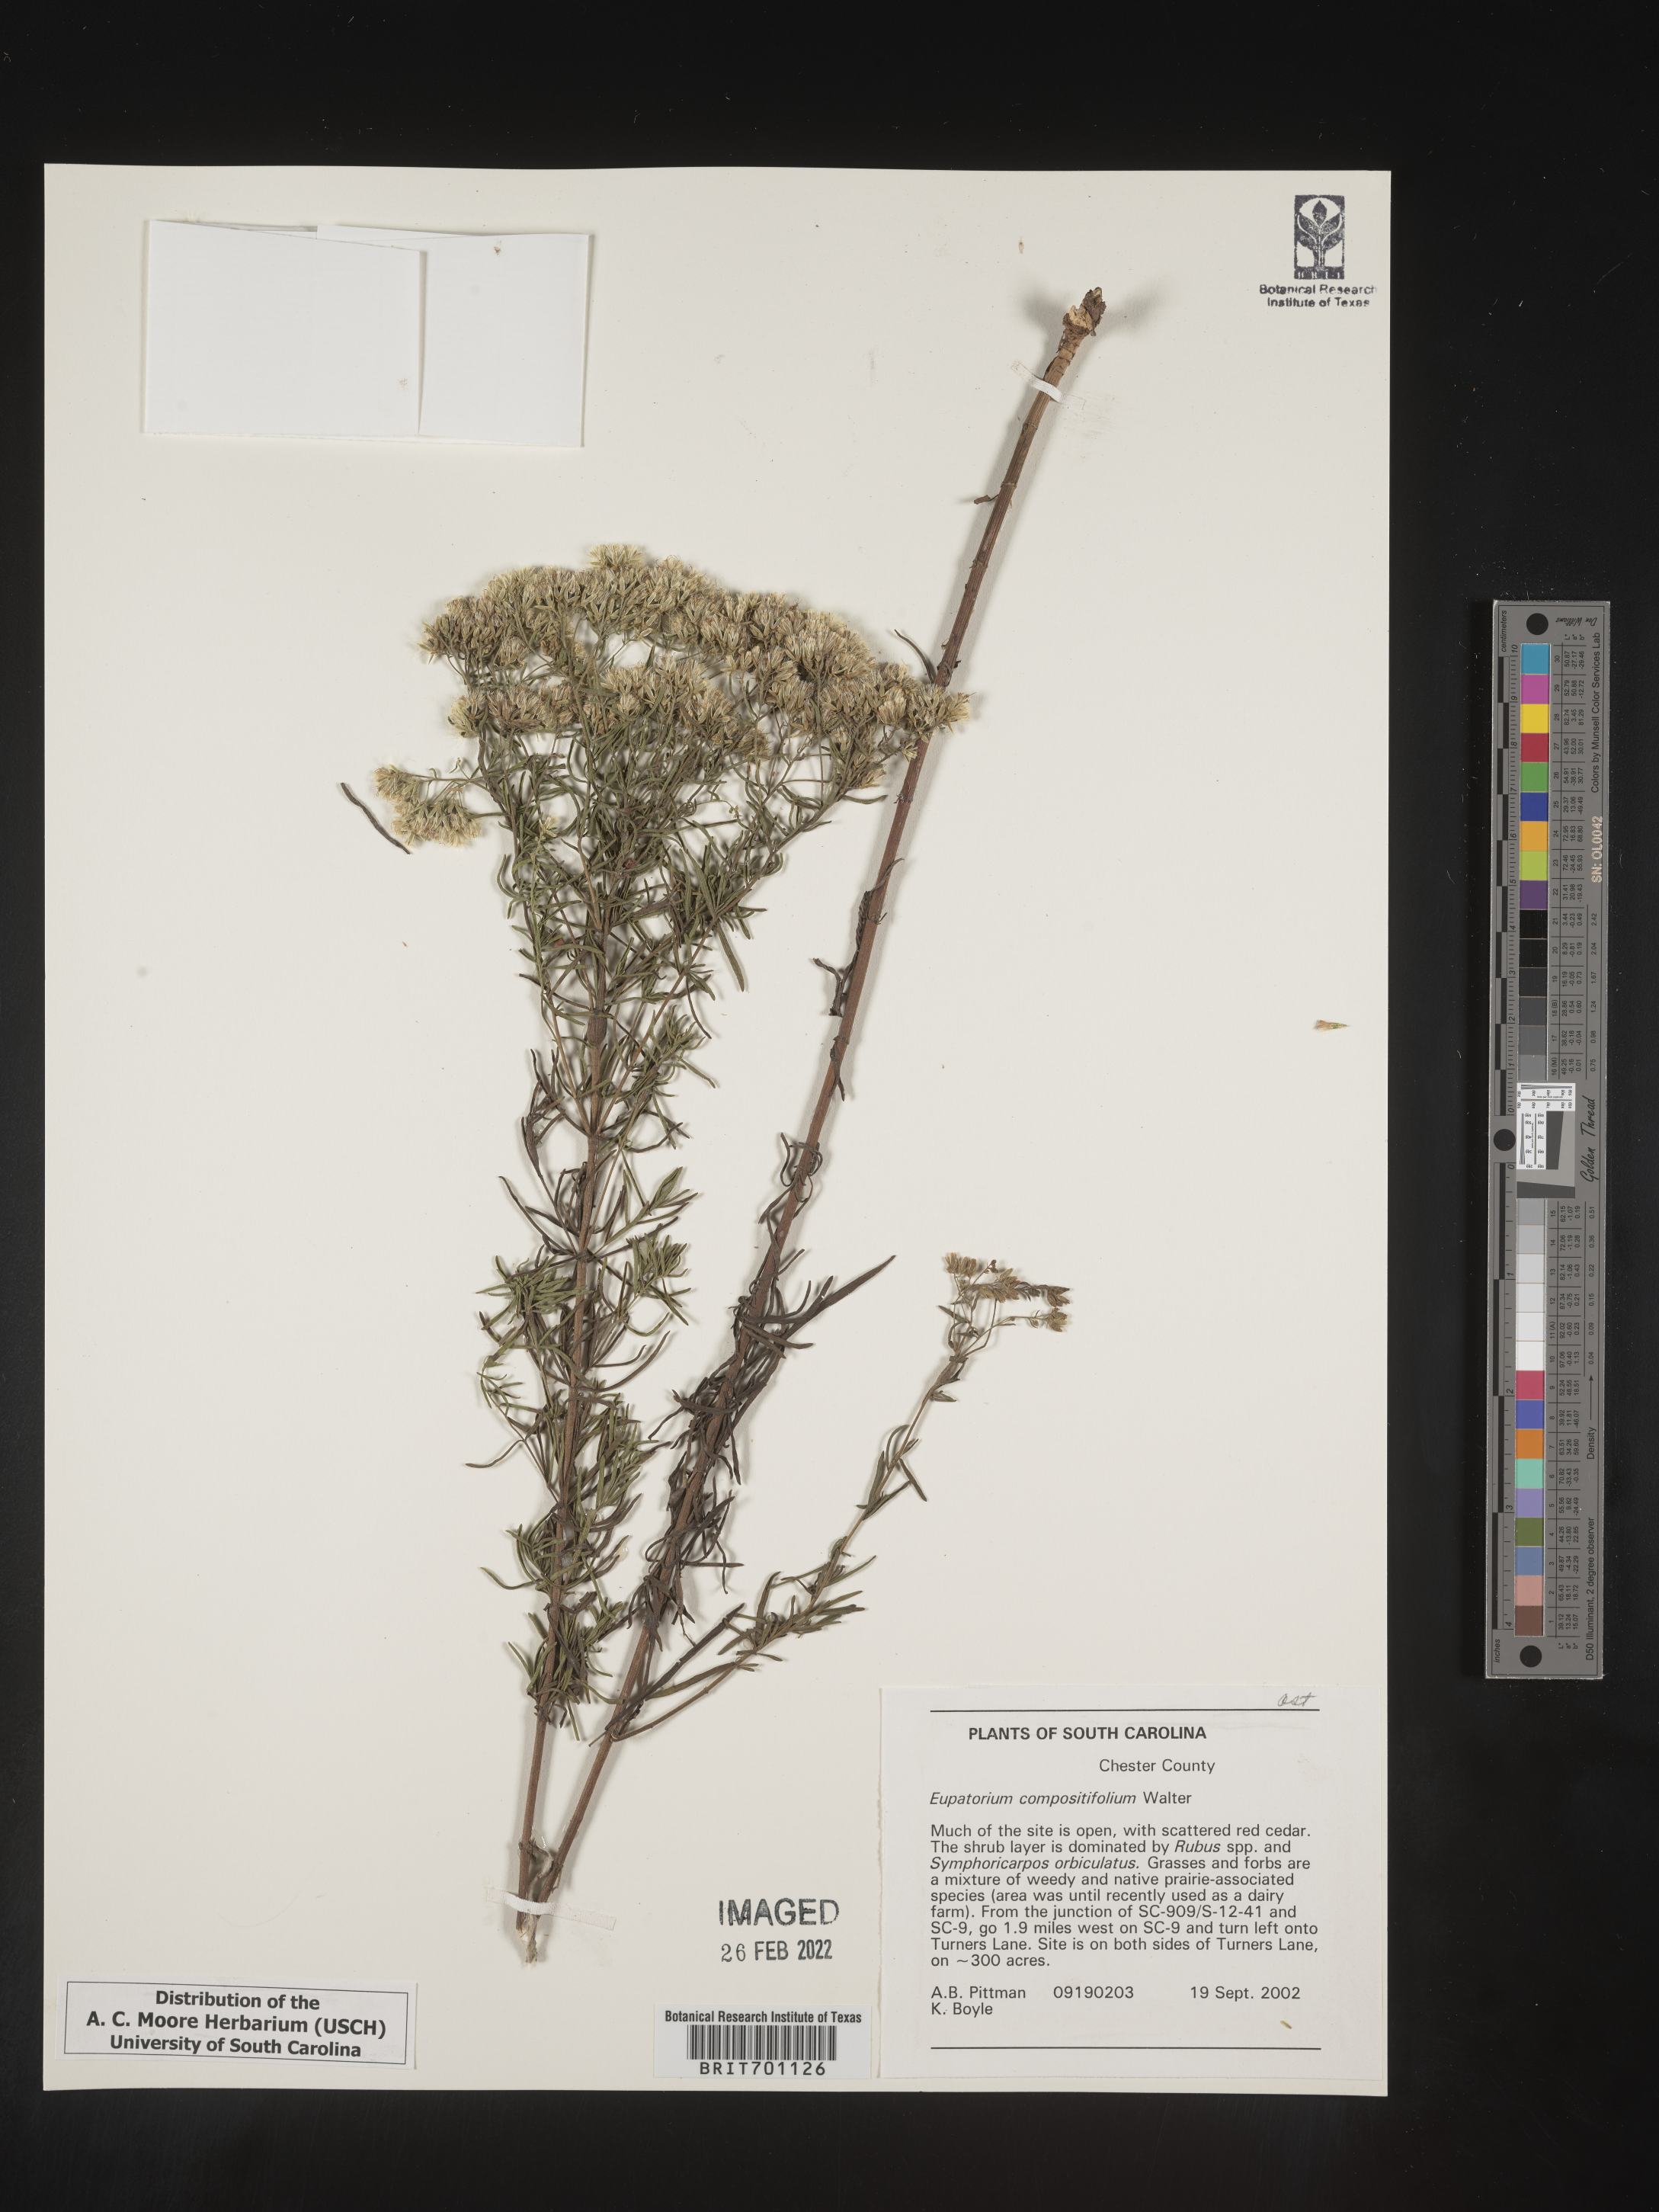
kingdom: Plantae
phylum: Tracheophyta
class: Magnoliopsida
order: Asterales
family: Asteraceae
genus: Eupatorium
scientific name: Eupatorium compositifolium
